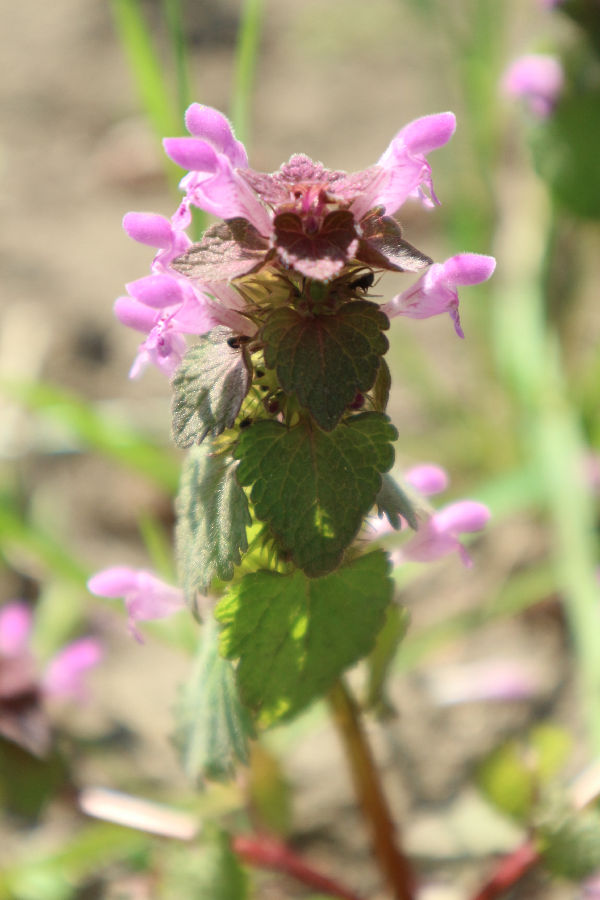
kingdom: Plantae
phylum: Tracheophyta
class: Magnoliopsida
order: Lamiales
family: Lamiaceae
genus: Lamium
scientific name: Lamium purpureum
